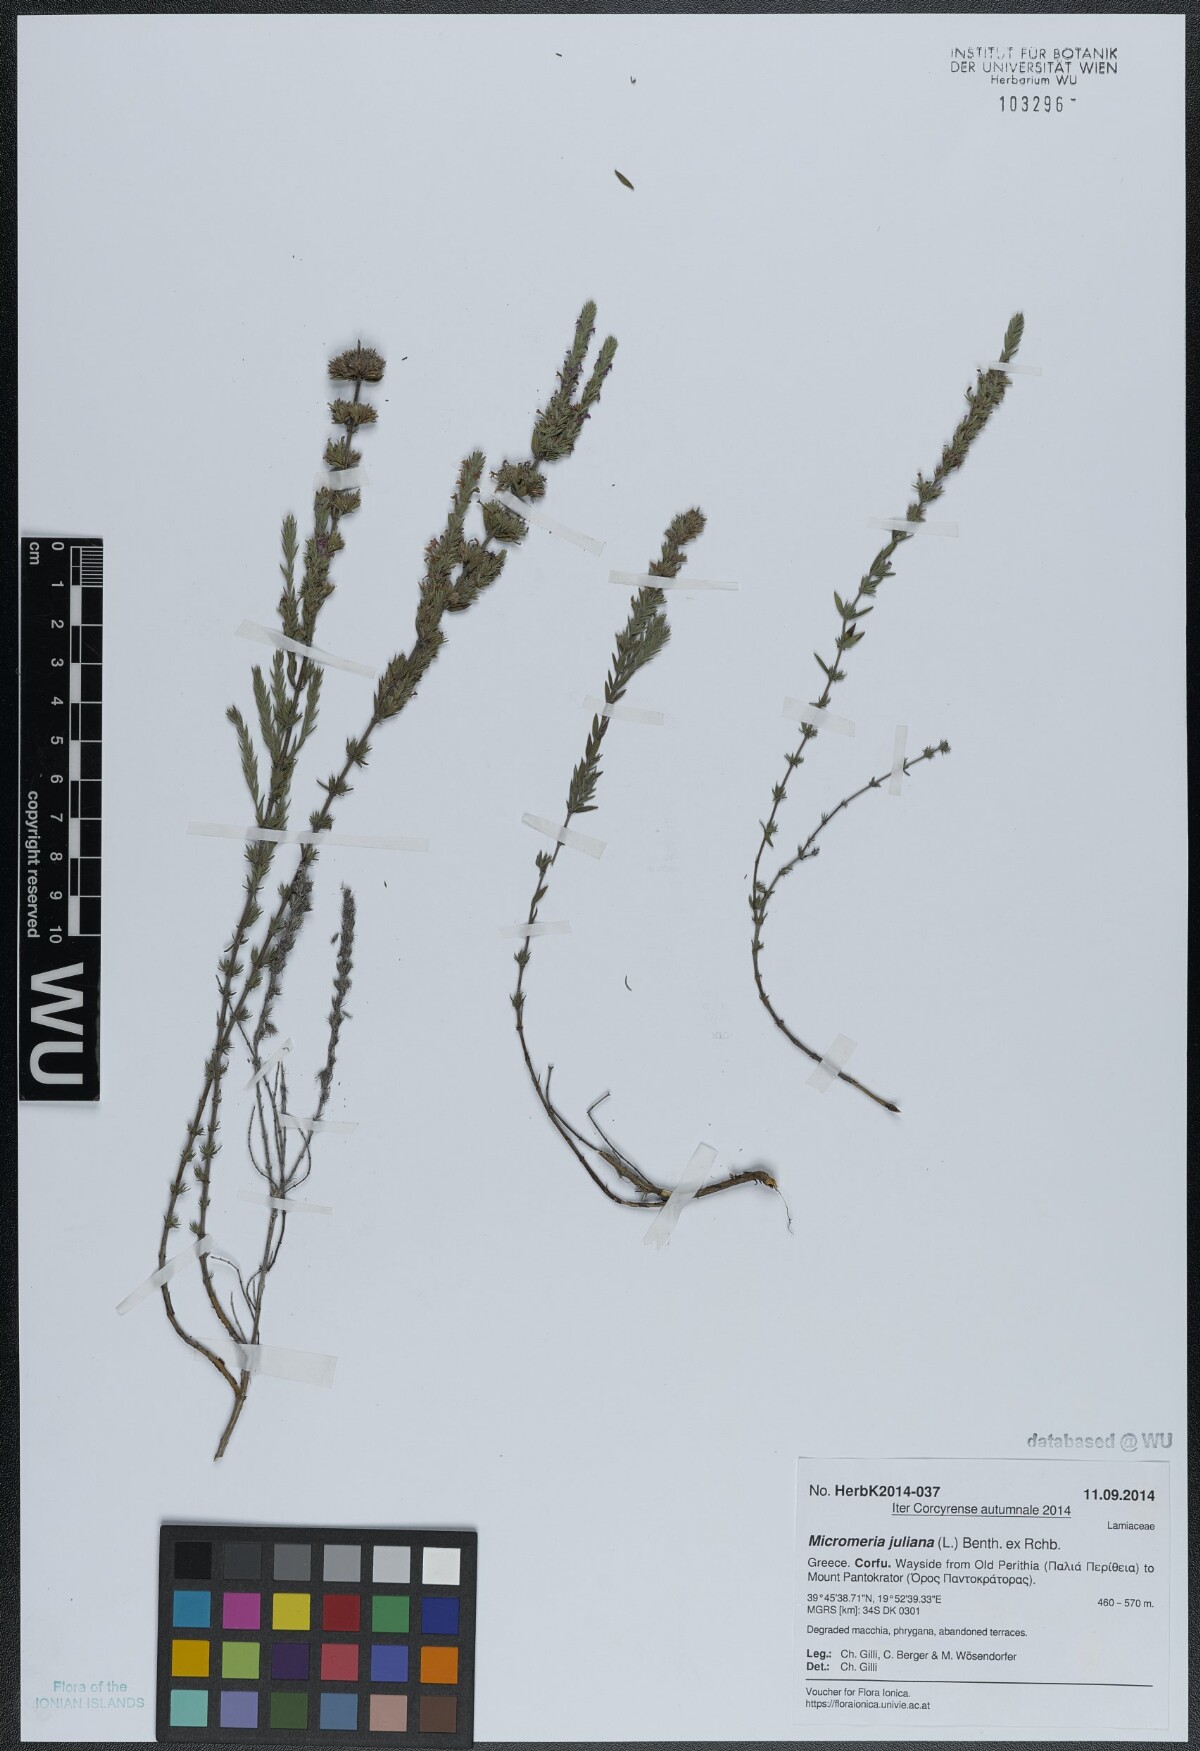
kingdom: Plantae
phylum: Tracheophyta
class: Magnoliopsida
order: Lamiales
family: Lamiaceae
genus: Micromeria
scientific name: Micromeria juliana
